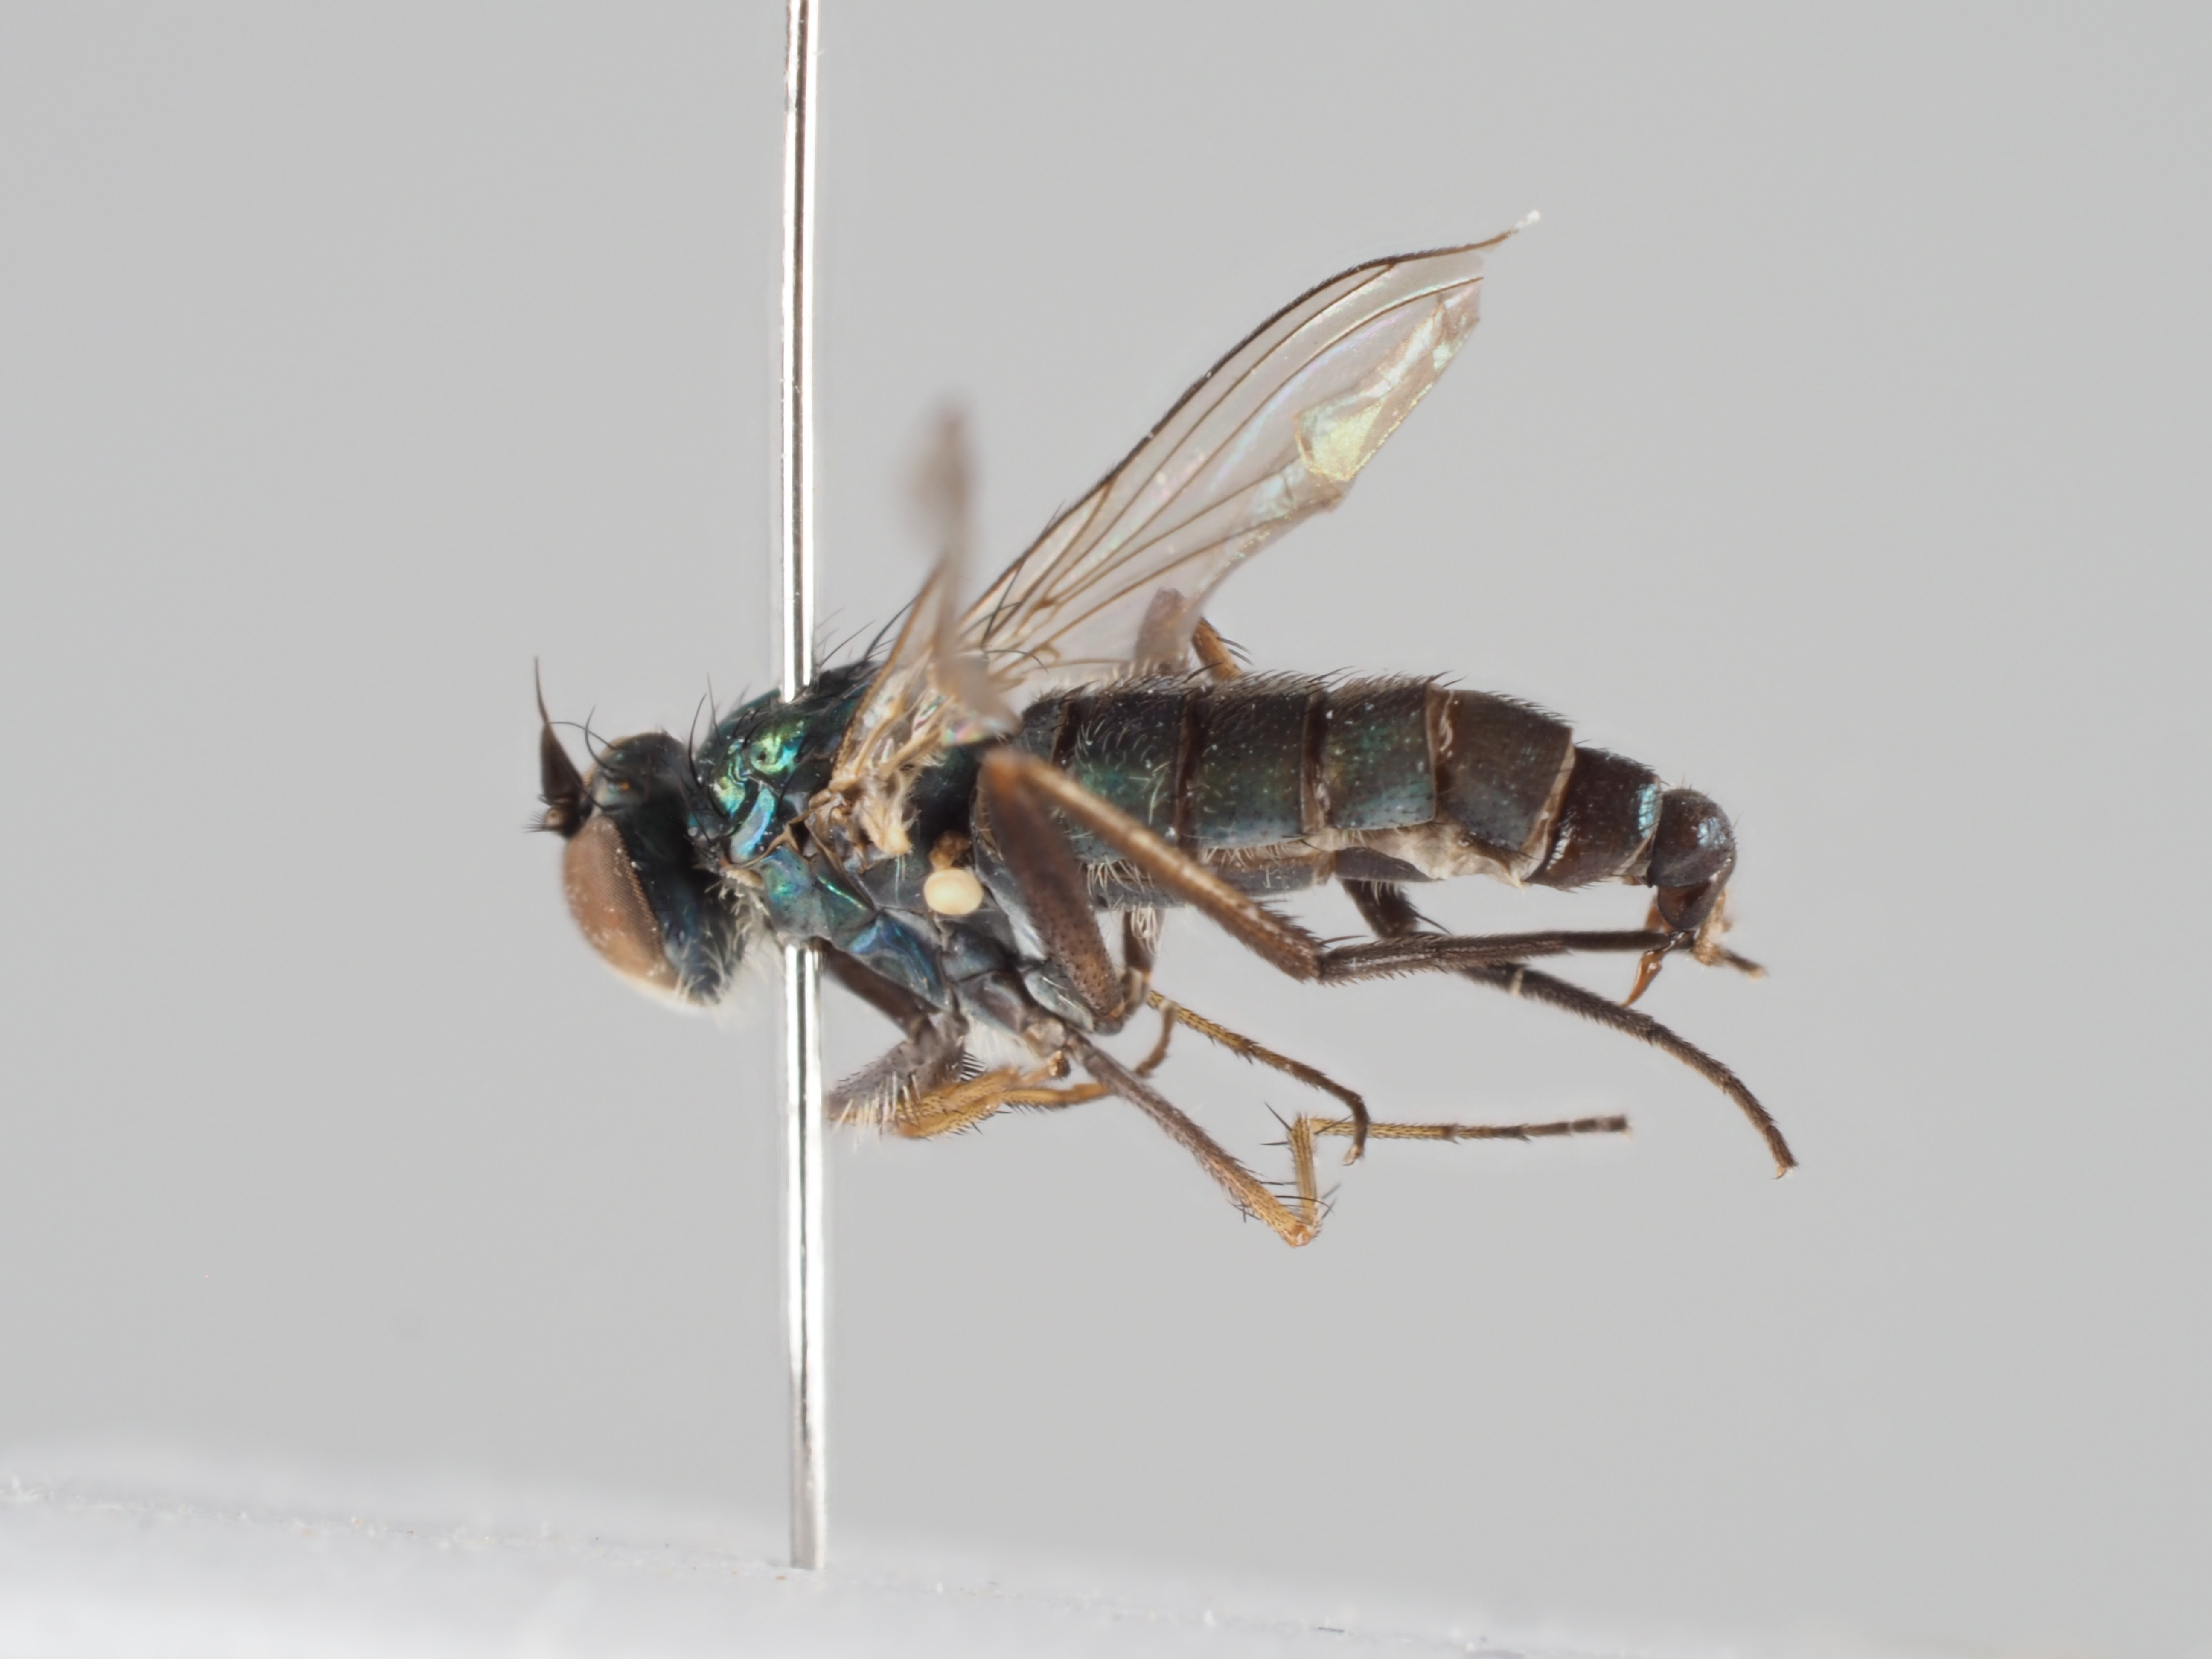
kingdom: Animalia
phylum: Arthropoda
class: Insecta
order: Diptera
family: Dolichopodidae
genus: Rhaphium
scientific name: Rhaphium riparium
